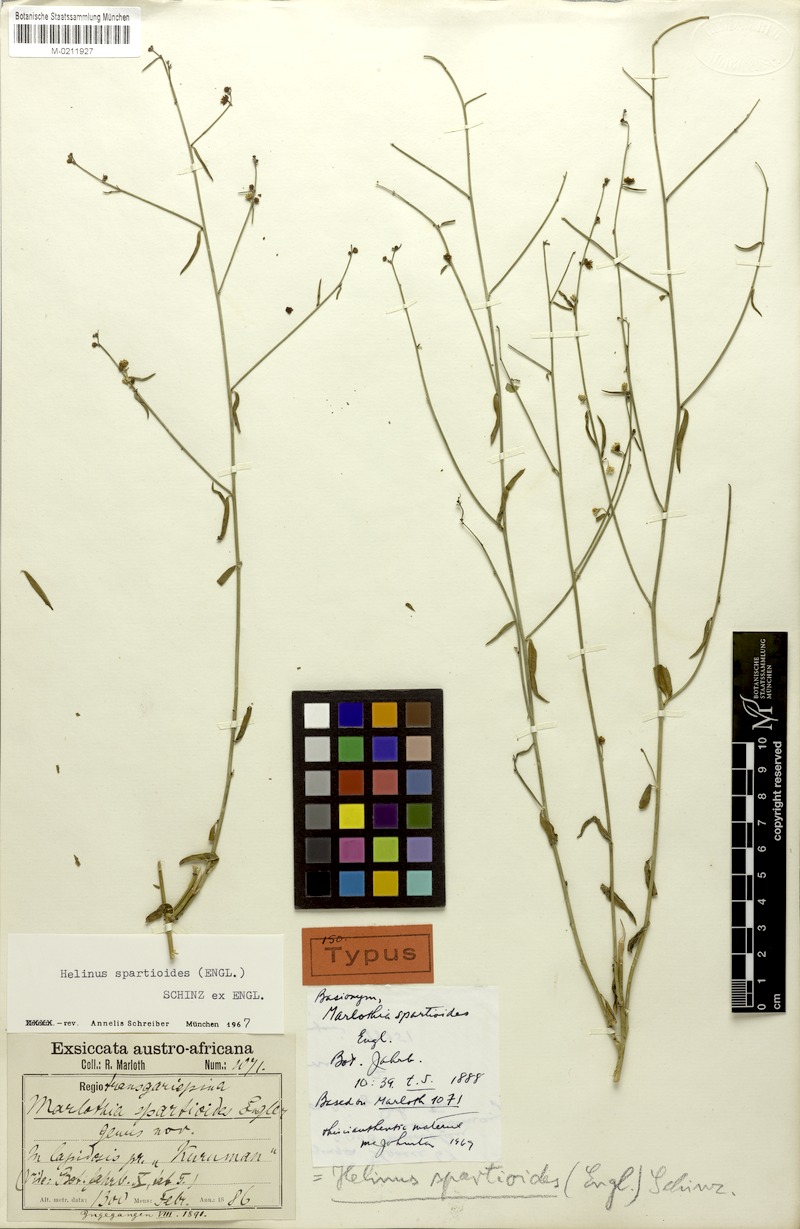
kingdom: Plantae
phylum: Tracheophyta
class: Magnoliopsida
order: Rosales
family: Rhamnaceae
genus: Helinus
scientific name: Helinus spartioides
